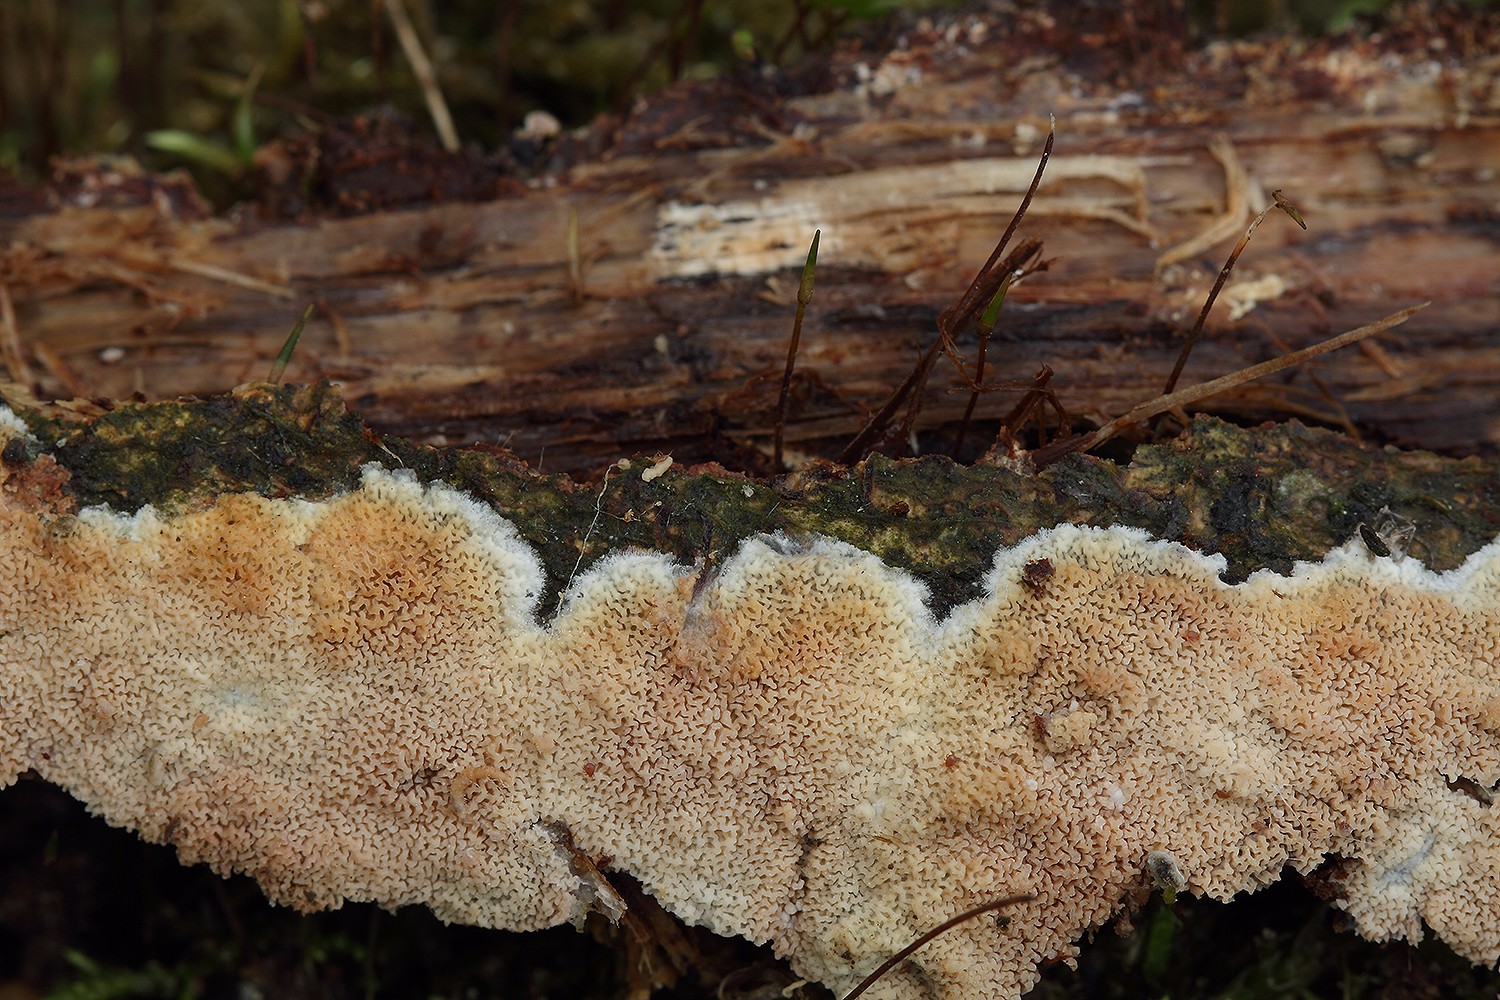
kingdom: Fungi
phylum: Basidiomycota
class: Agaricomycetes
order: Polyporales
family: Irpicaceae
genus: Crystallicutis
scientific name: Crystallicutis serpens
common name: gråviolet barkhinde
